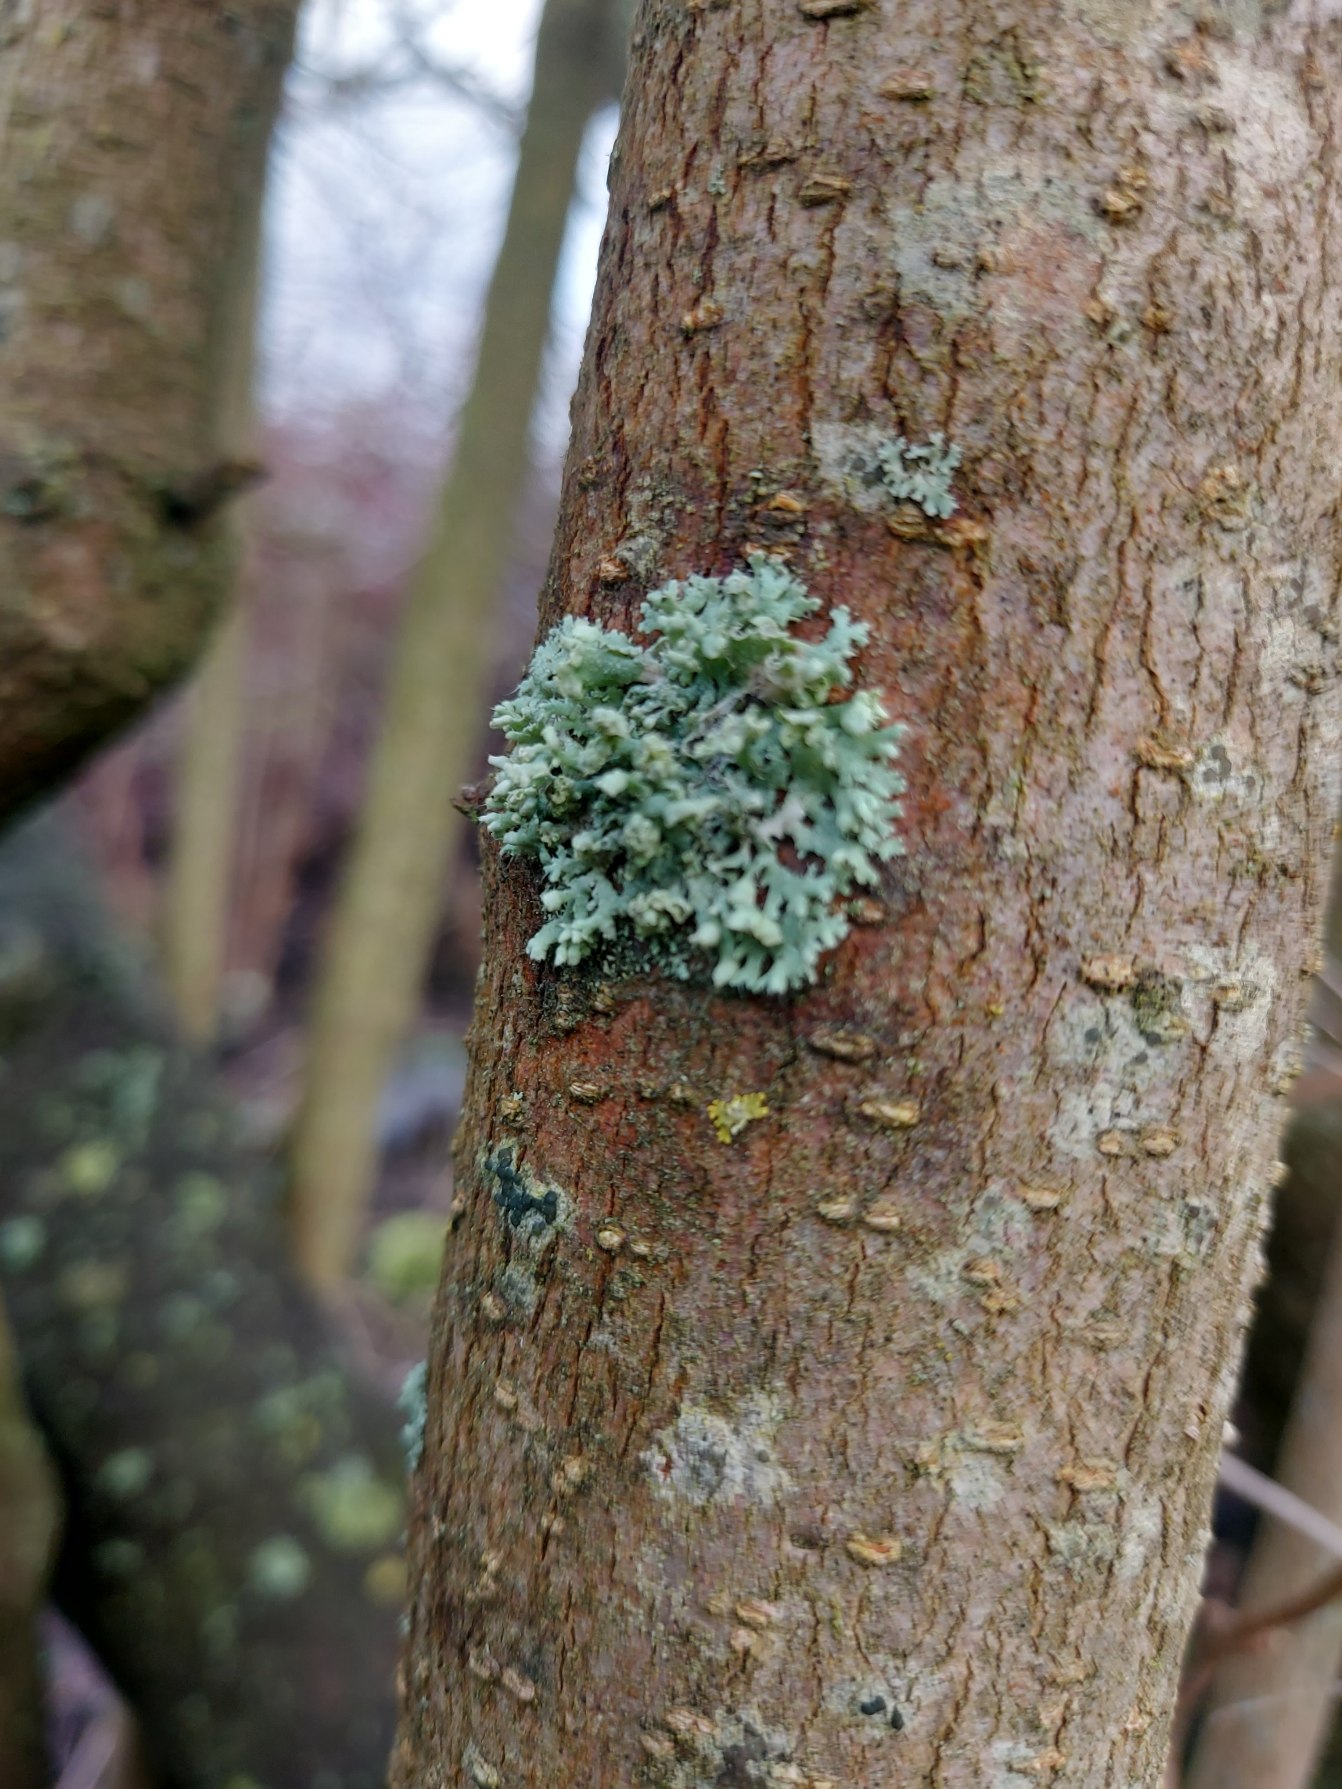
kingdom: Fungi
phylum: Ascomycota
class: Lecanoromycetes
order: Caliciales
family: Physciaceae
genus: Physcia
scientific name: Physcia adscendens
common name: Hætte-rosetlav
